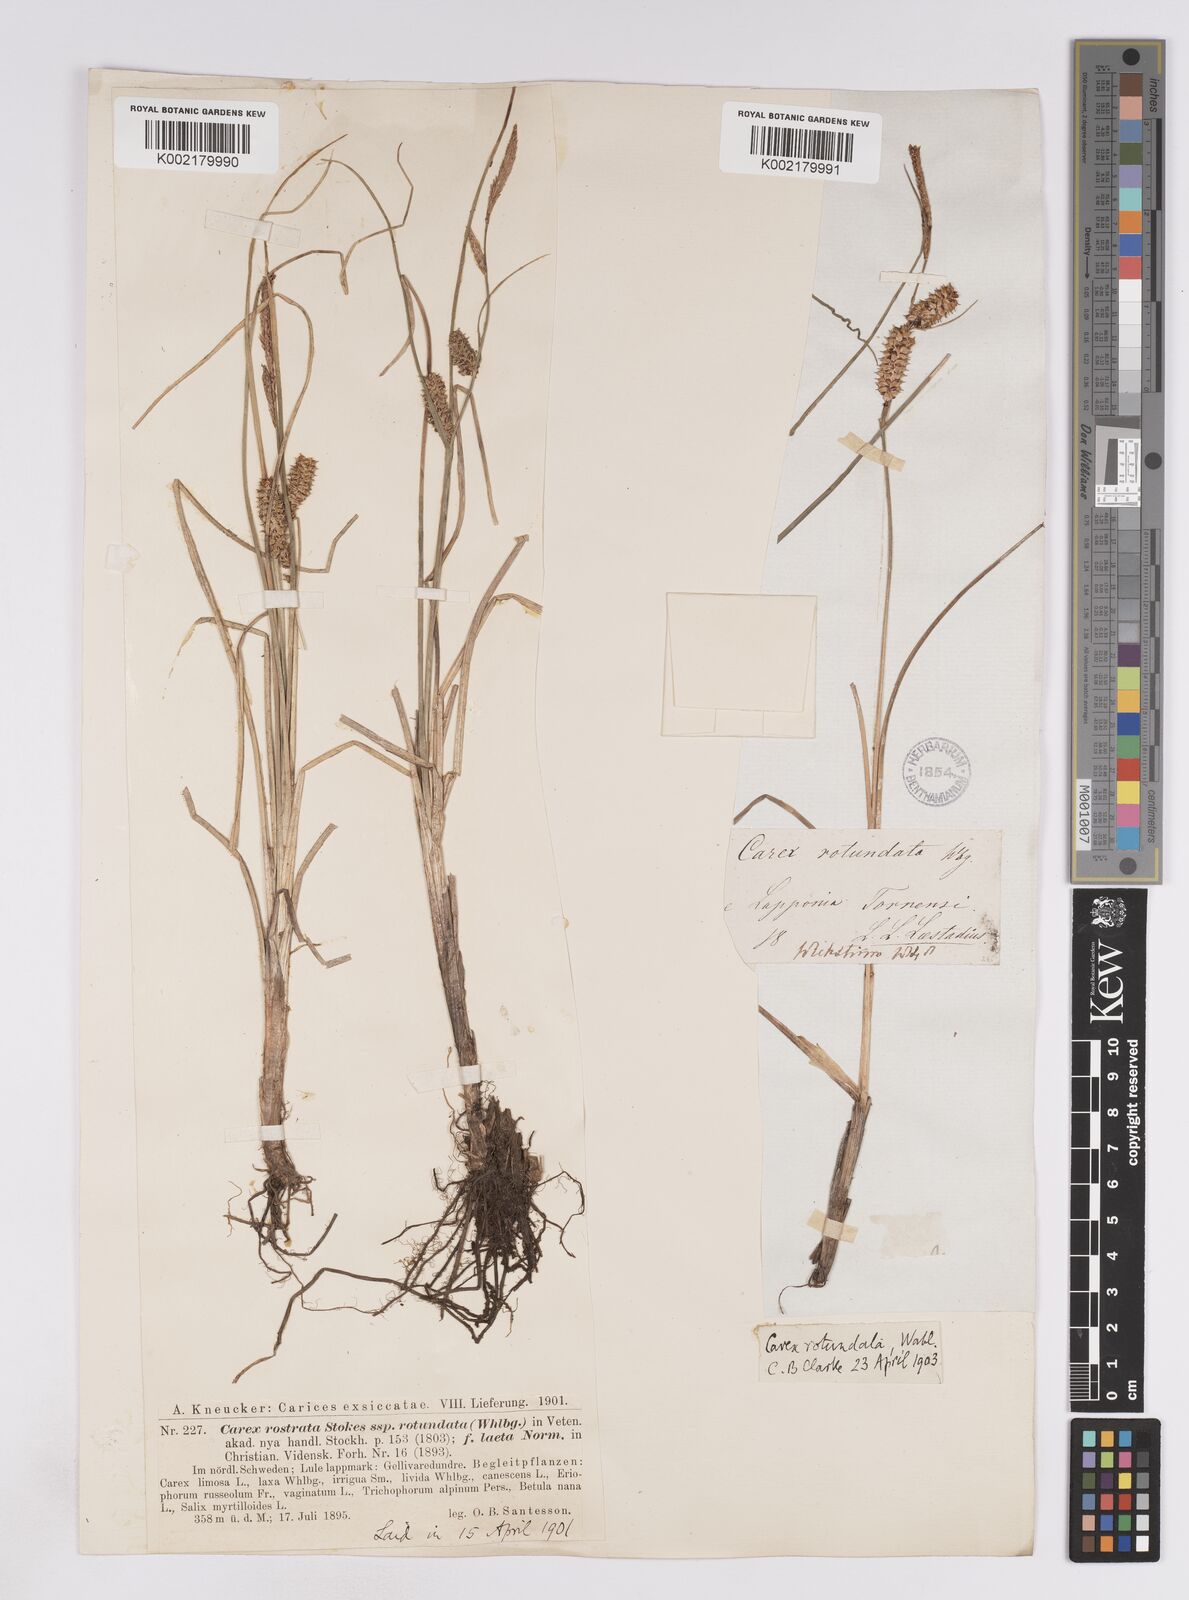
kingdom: Plantae
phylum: Tracheophyta
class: Liliopsida
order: Poales
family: Cyperaceae
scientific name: Cyperaceae
